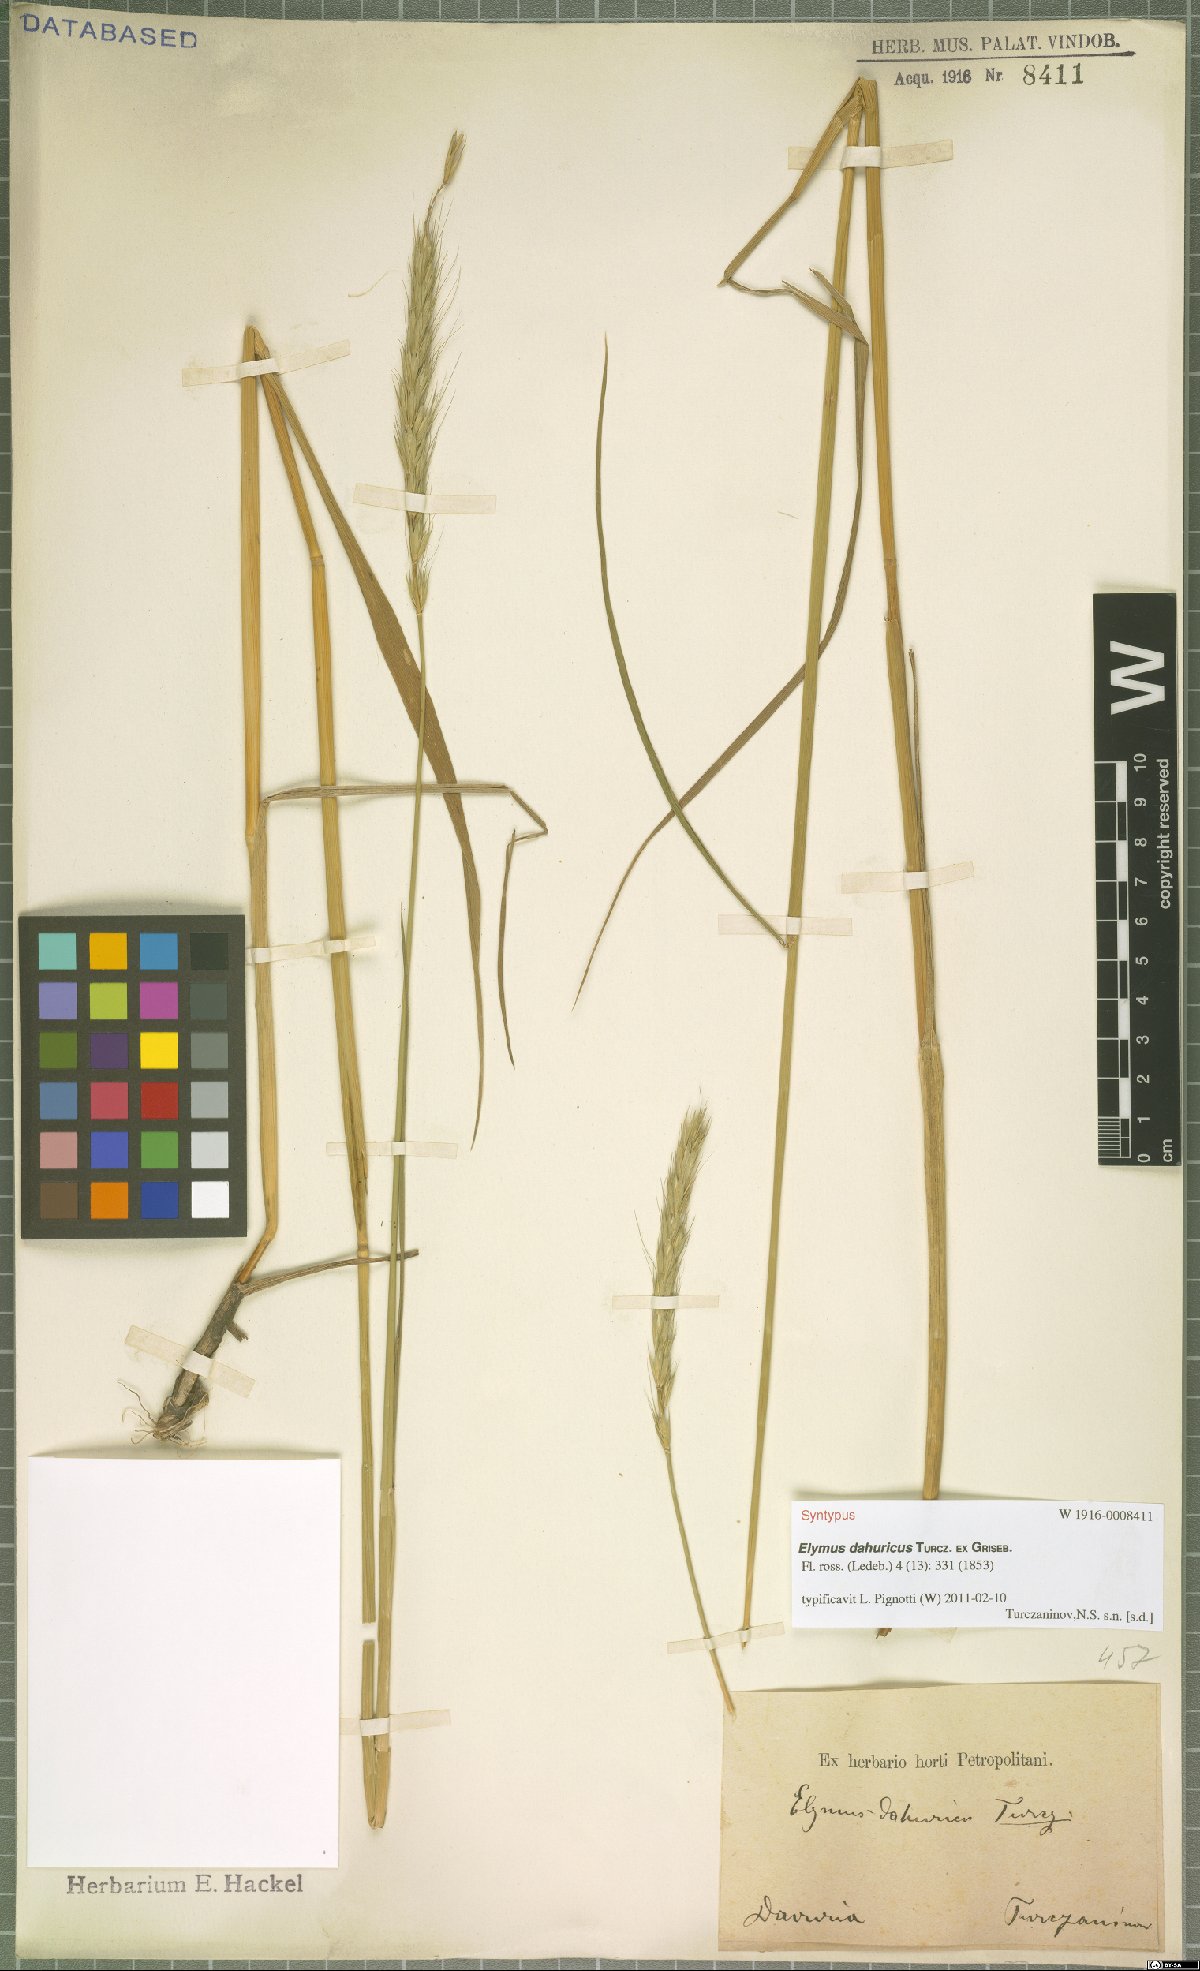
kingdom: Plantae
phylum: Tracheophyta
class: Liliopsida
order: Poales
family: Poaceae
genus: Elymus
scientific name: Elymus dahuricus
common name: Dahurian wild rye
